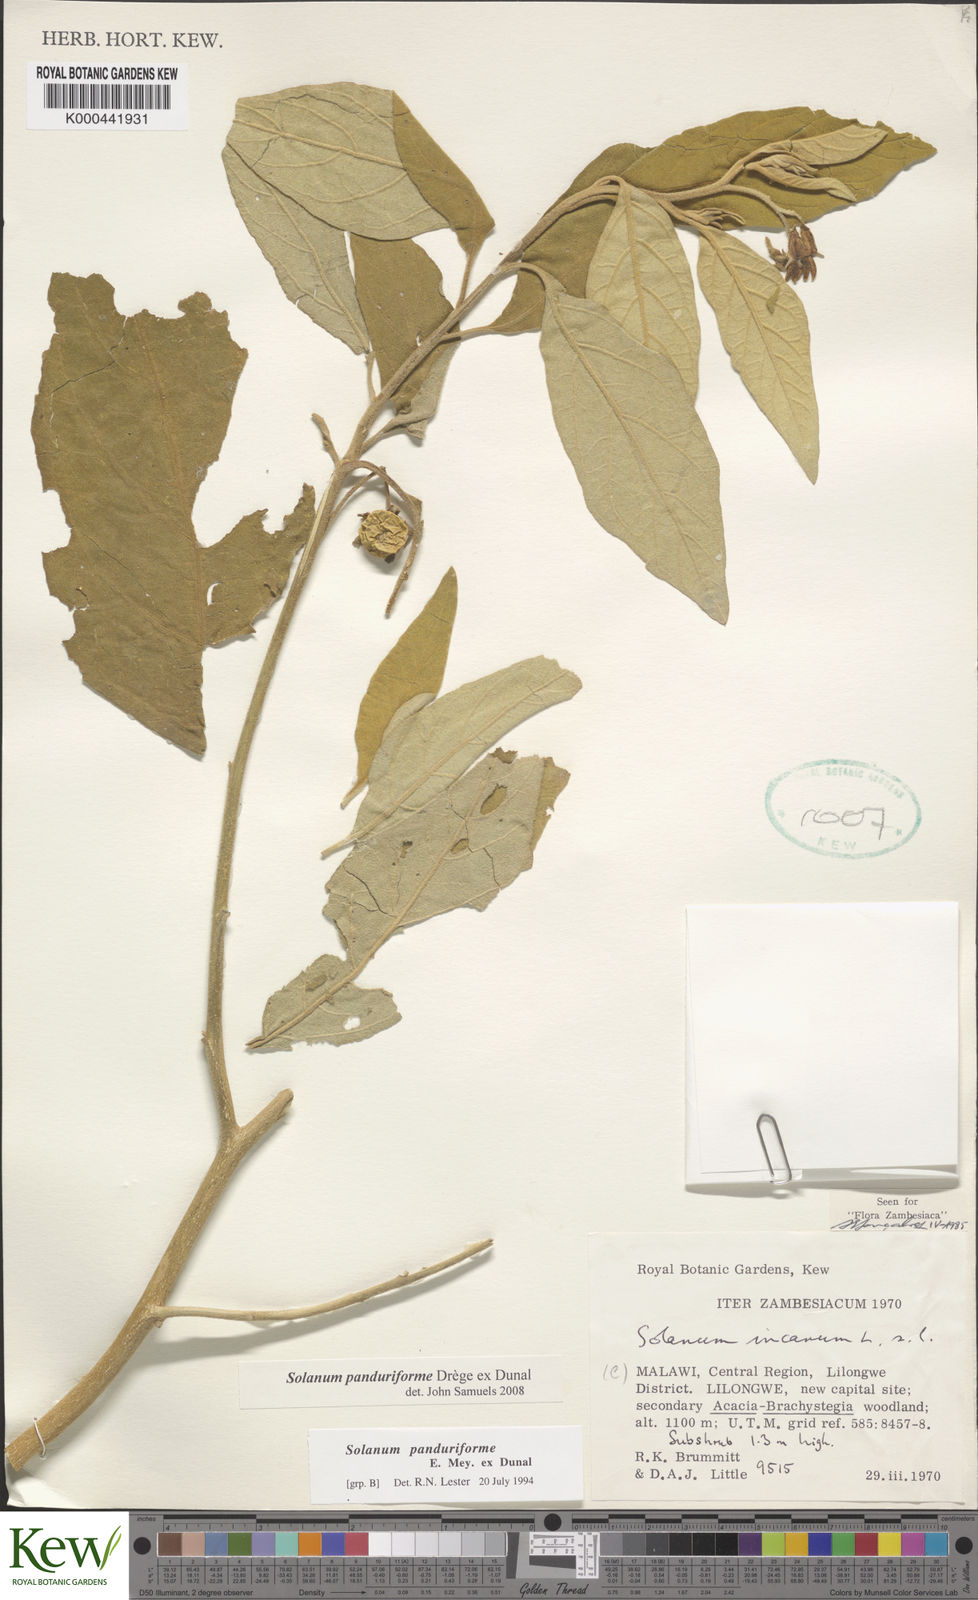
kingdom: Plantae
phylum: Tracheophyta
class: Magnoliopsida
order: Solanales
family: Solanaceae
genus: Solanum
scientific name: Solanum campylacanthum
